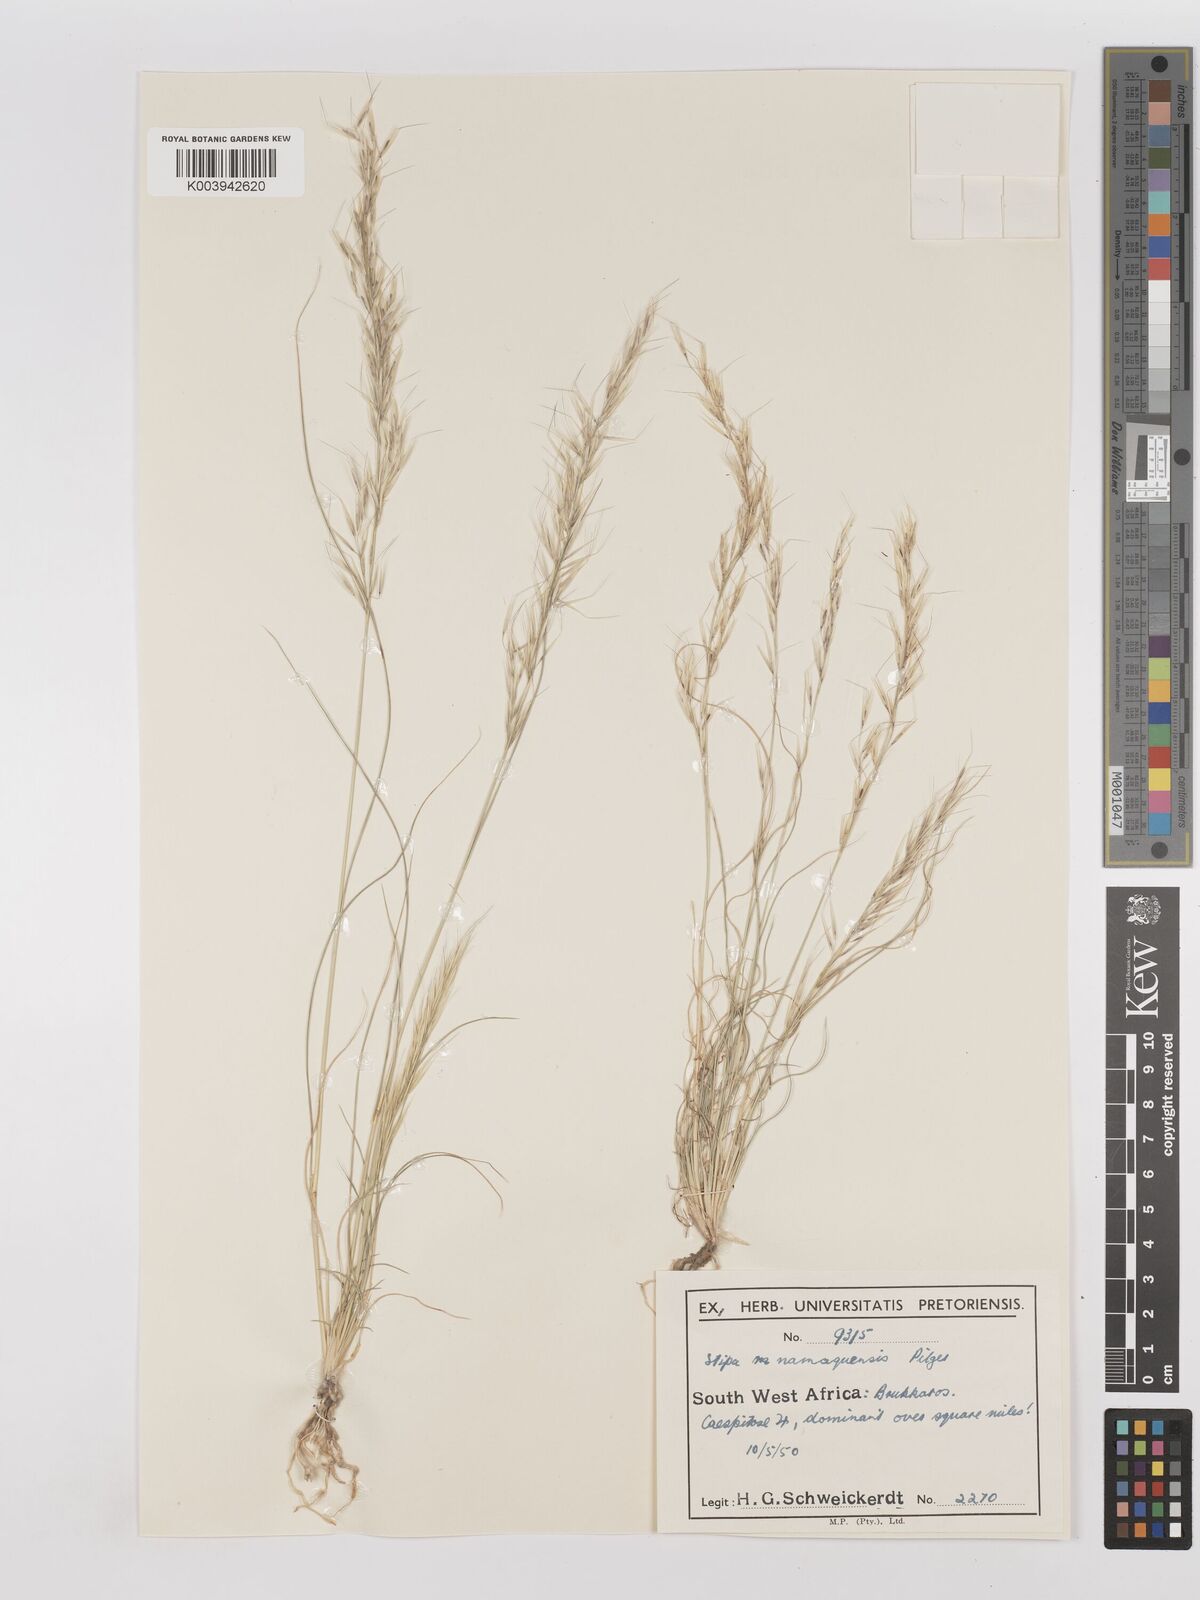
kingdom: Plantae
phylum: Tracheophyta
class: Liliopsida
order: Poales
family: Poaceae
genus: Stipagrostis
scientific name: Stipagrostis anomala
